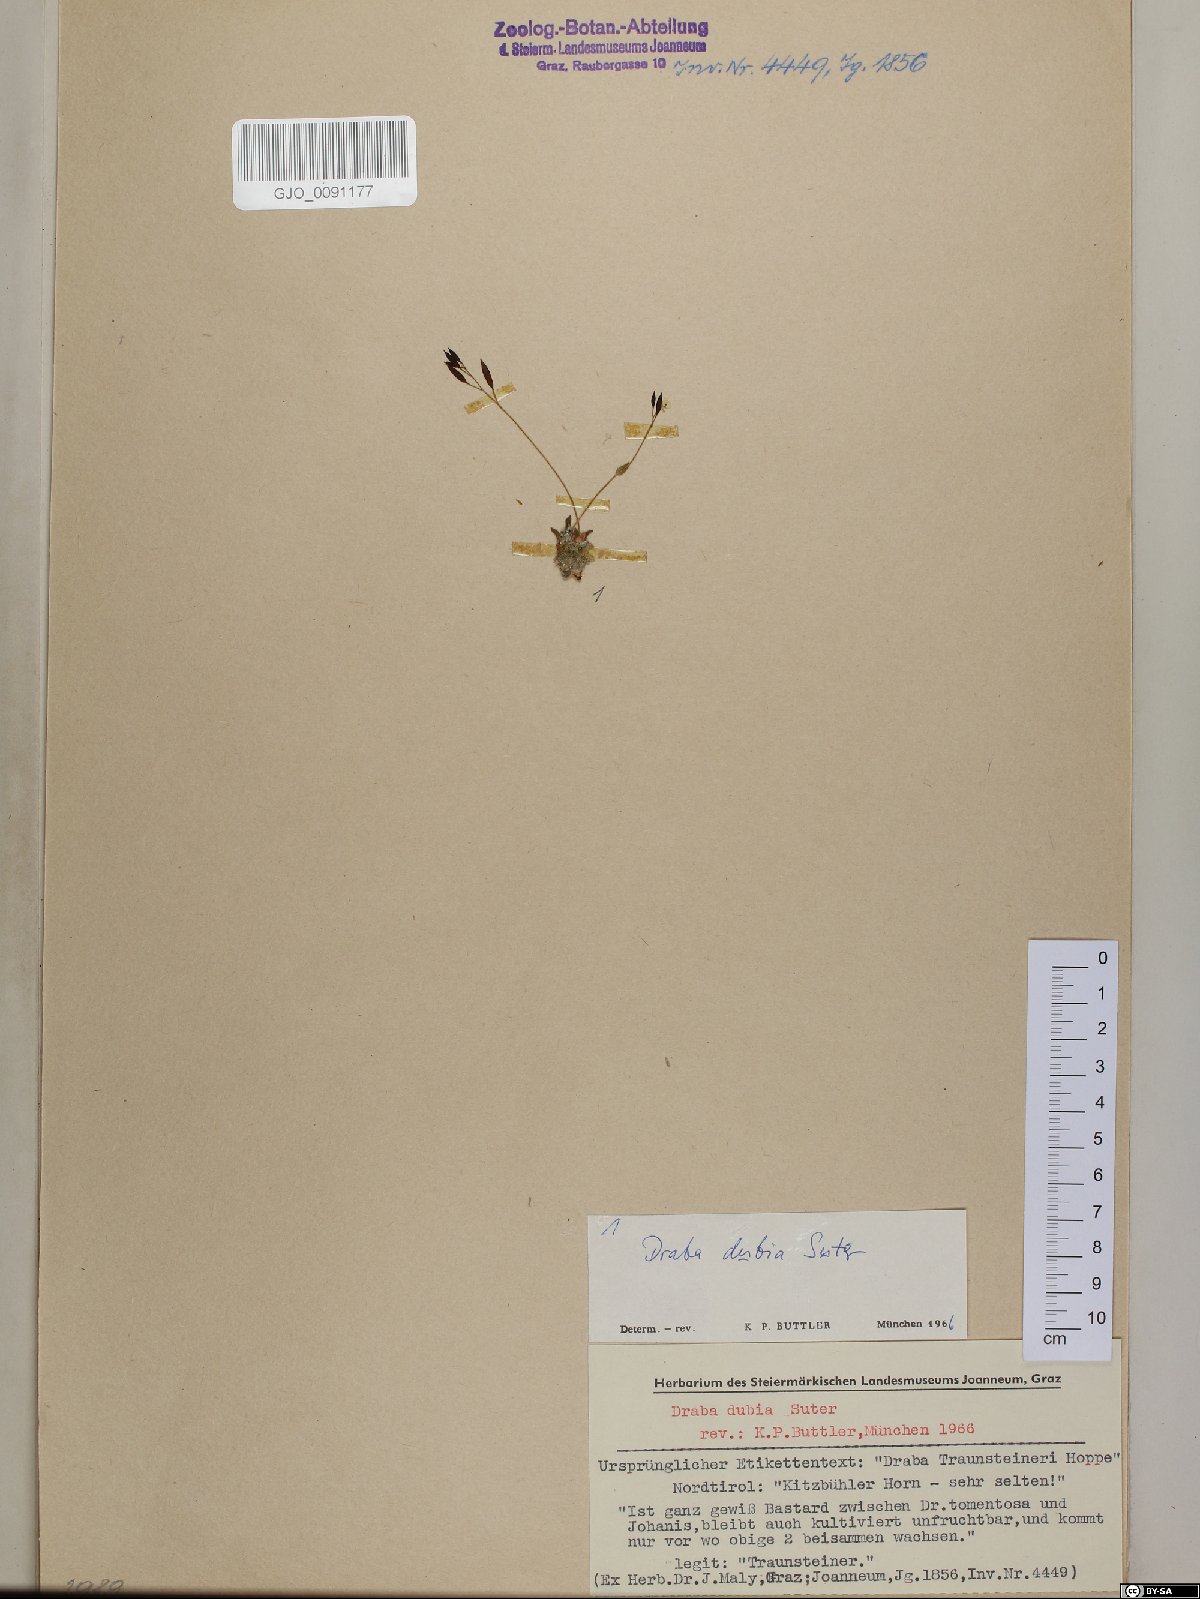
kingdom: Plantae
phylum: Tracheophyta
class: Magnoliopsida
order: Brassicales
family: Brassicaceae
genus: Draba
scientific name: Draba dubia
